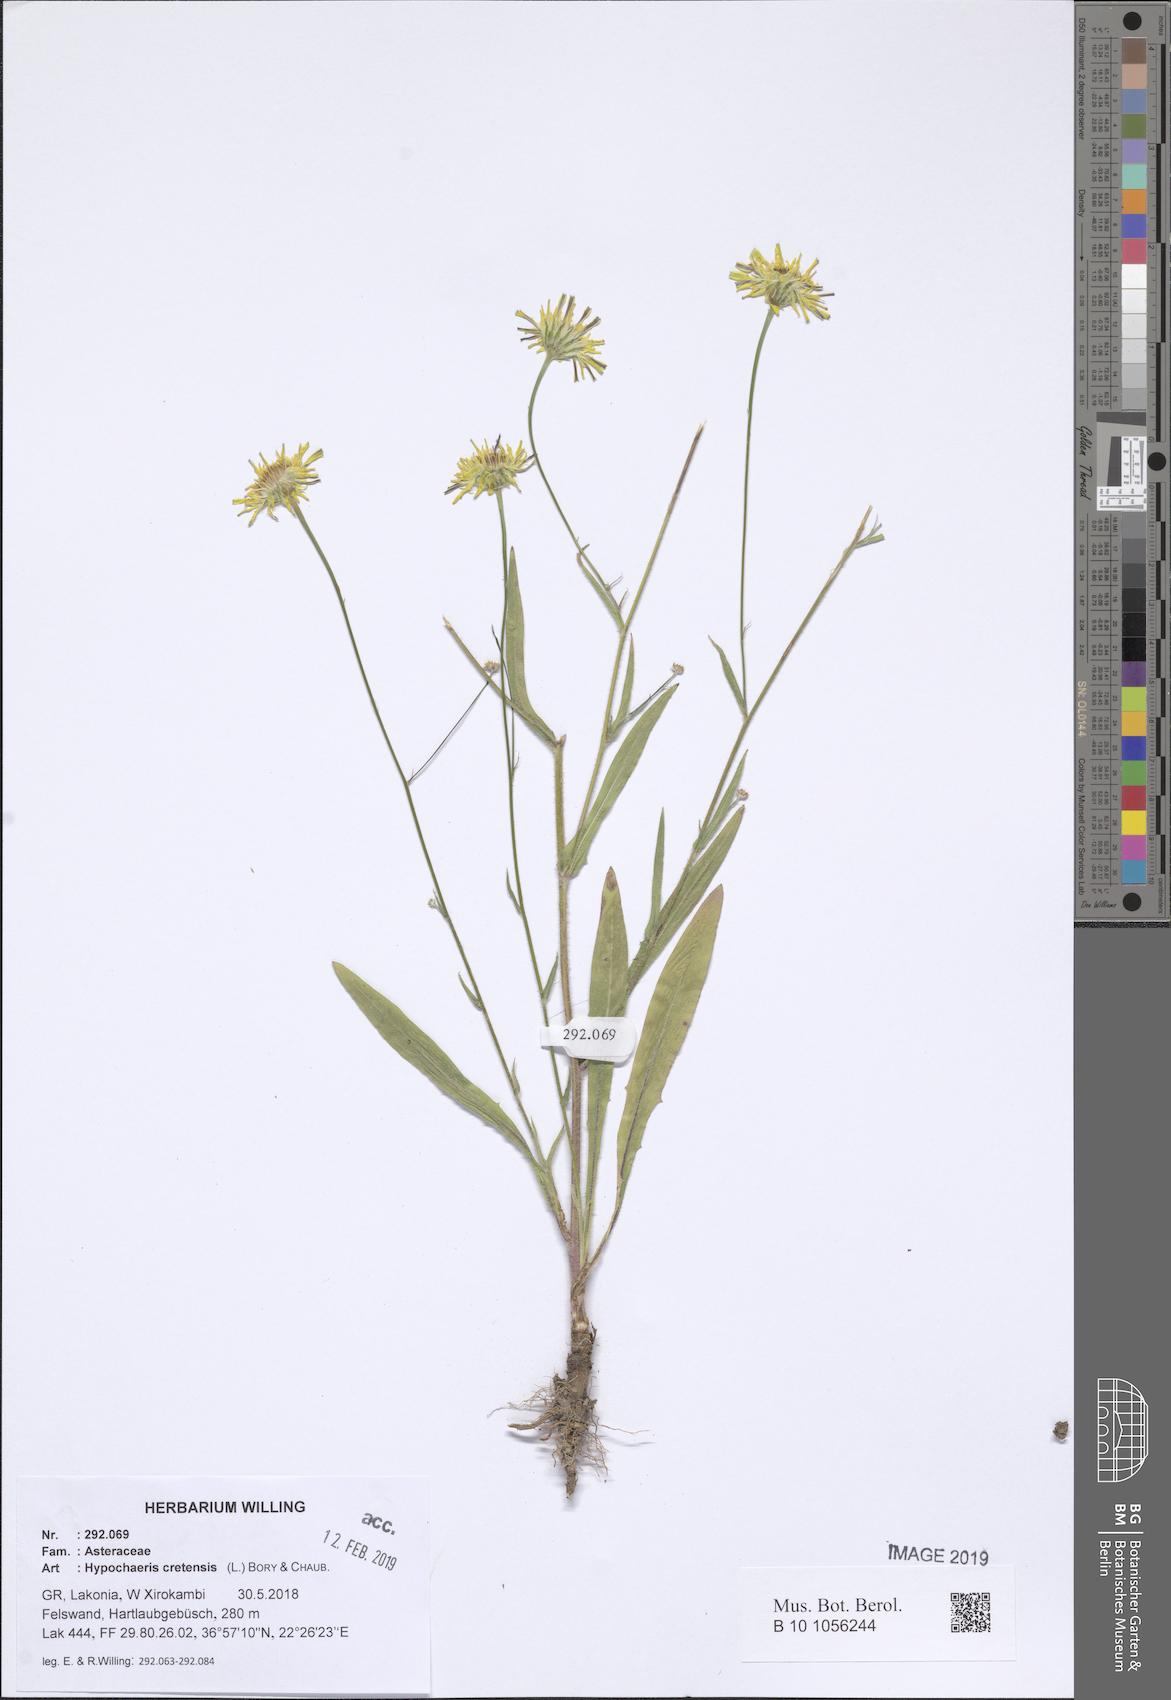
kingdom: Plantae
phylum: Tracheophyta
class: Magnoliopsida
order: Asterales
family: Asteraceae
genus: Hypochaeris
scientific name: Hypochaeris cretensis
